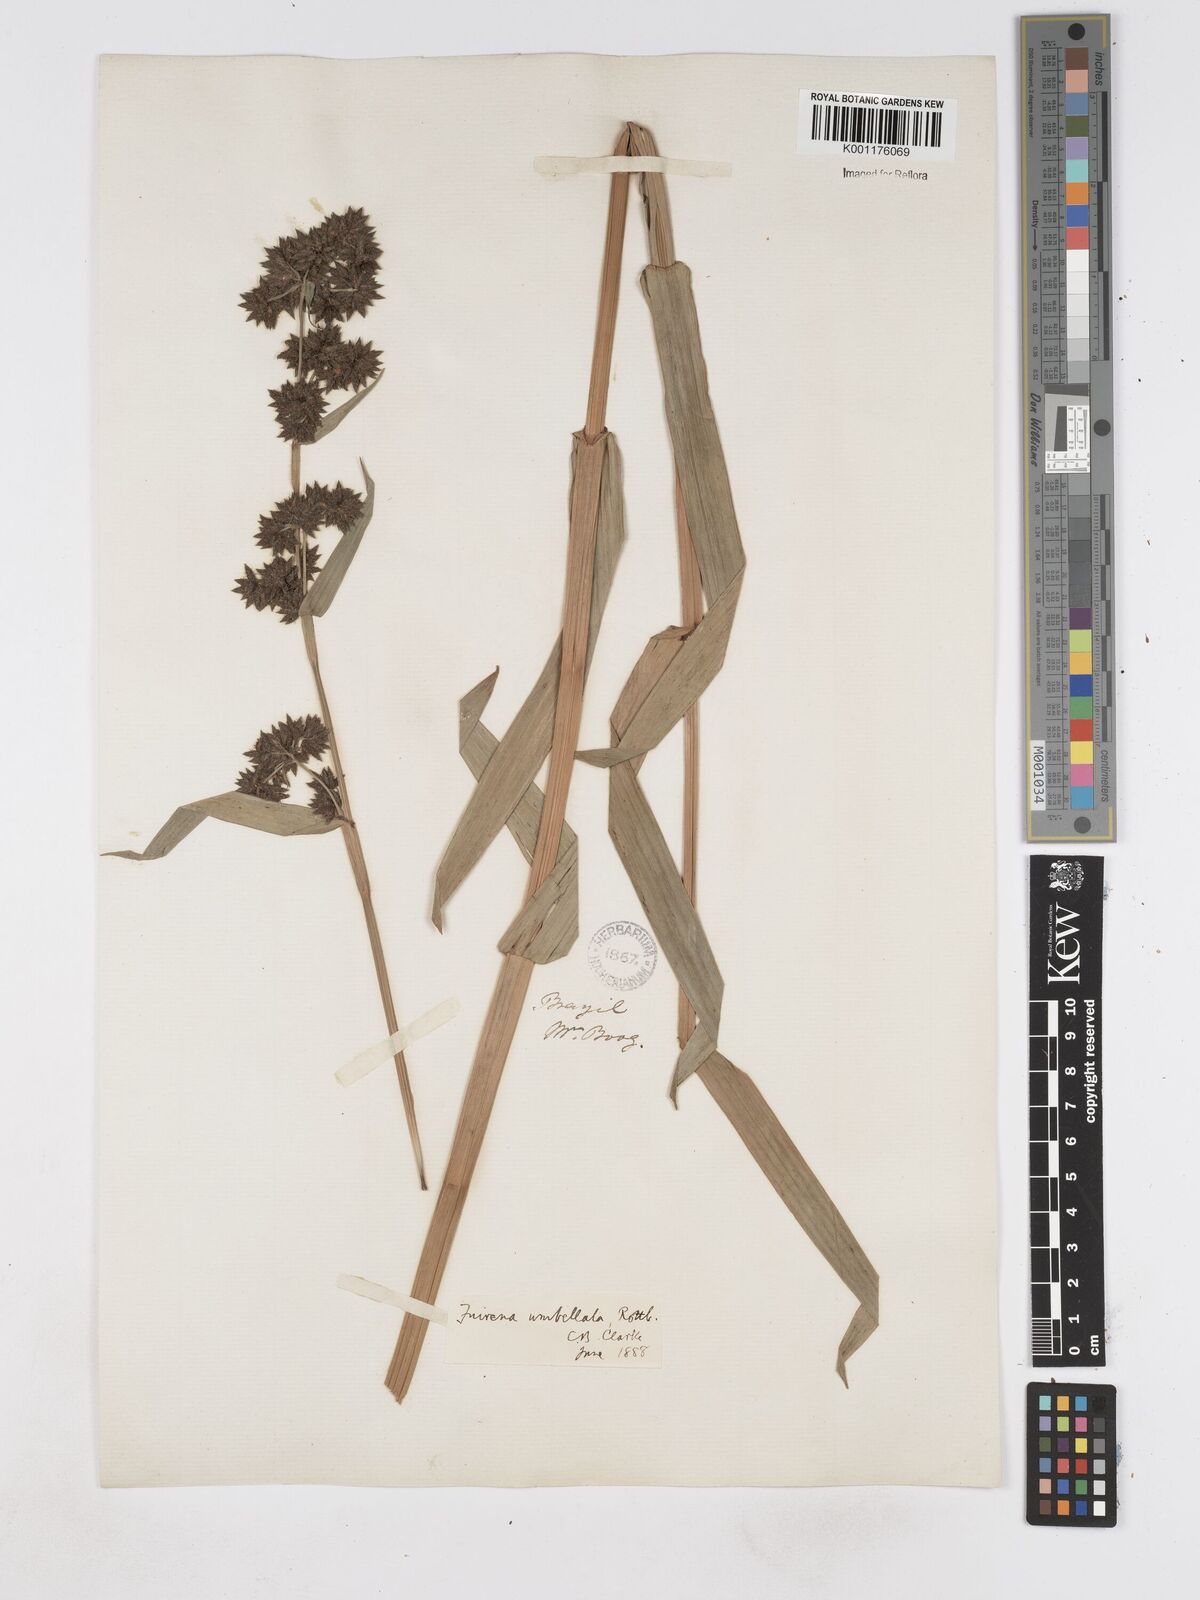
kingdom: Plantae
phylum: Tracheophyta
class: Liliopsida
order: Poales
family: Cyperaceae
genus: Fuirena
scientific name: Fuirena umbellata
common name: Yefen
